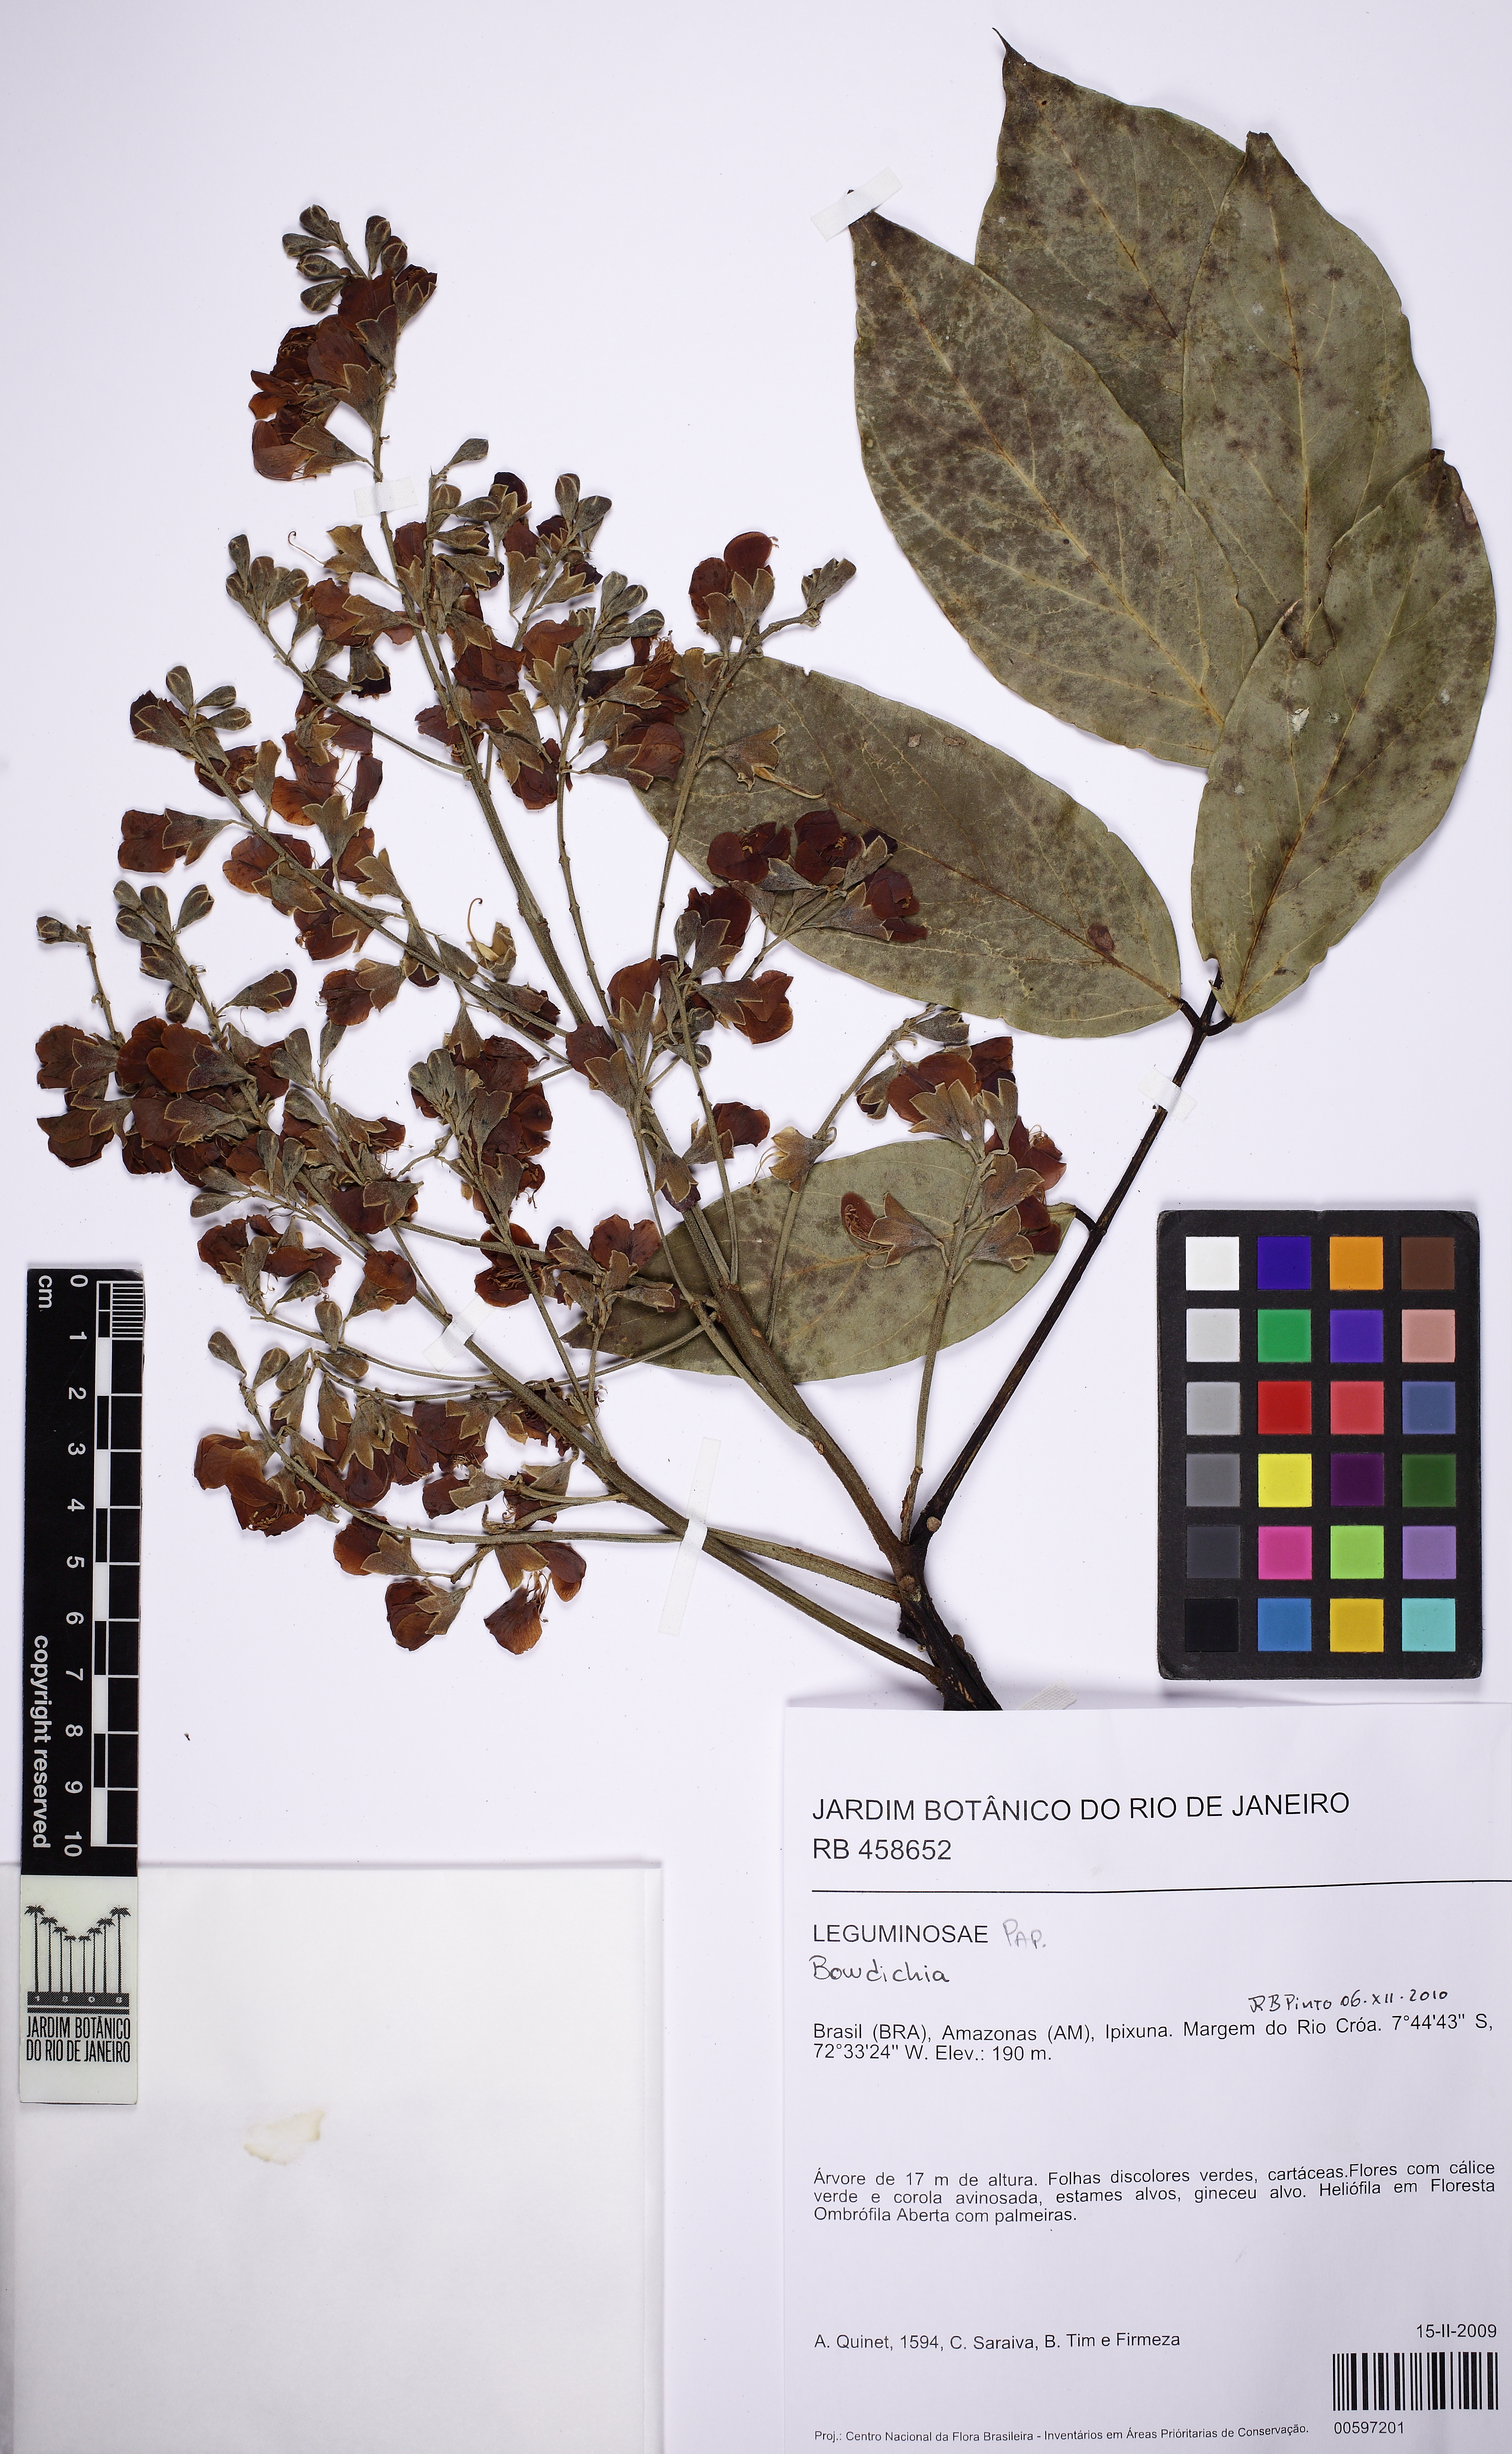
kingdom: Plantae
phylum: Tracheophyta
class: Magnoliopsida
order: Fabales
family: Fabaceae
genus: Ormosia
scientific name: Ormosia macrocalyx
